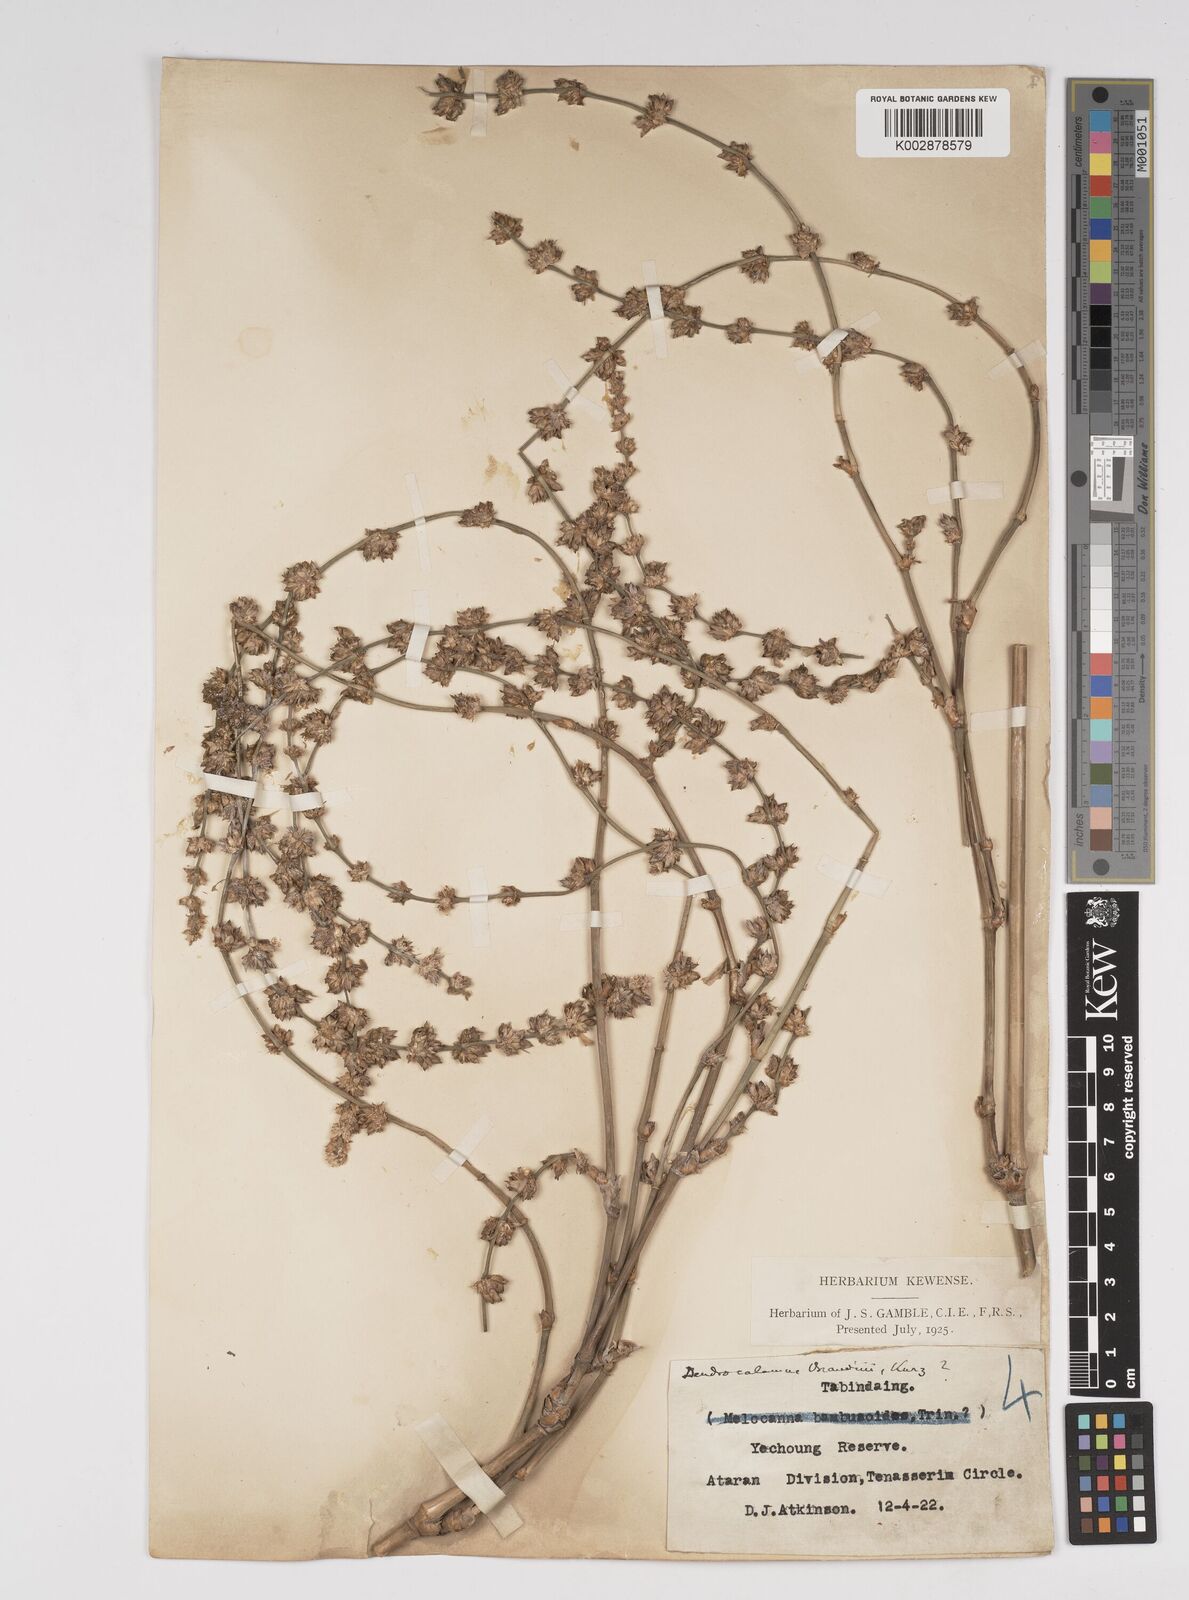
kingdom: Plantae
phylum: Tracheophyta
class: Liliopsida
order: Poales
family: Poaceae
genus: Dendrocalamus
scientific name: Dendrocalamus brandisii
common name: Velvetleaf bamboo
